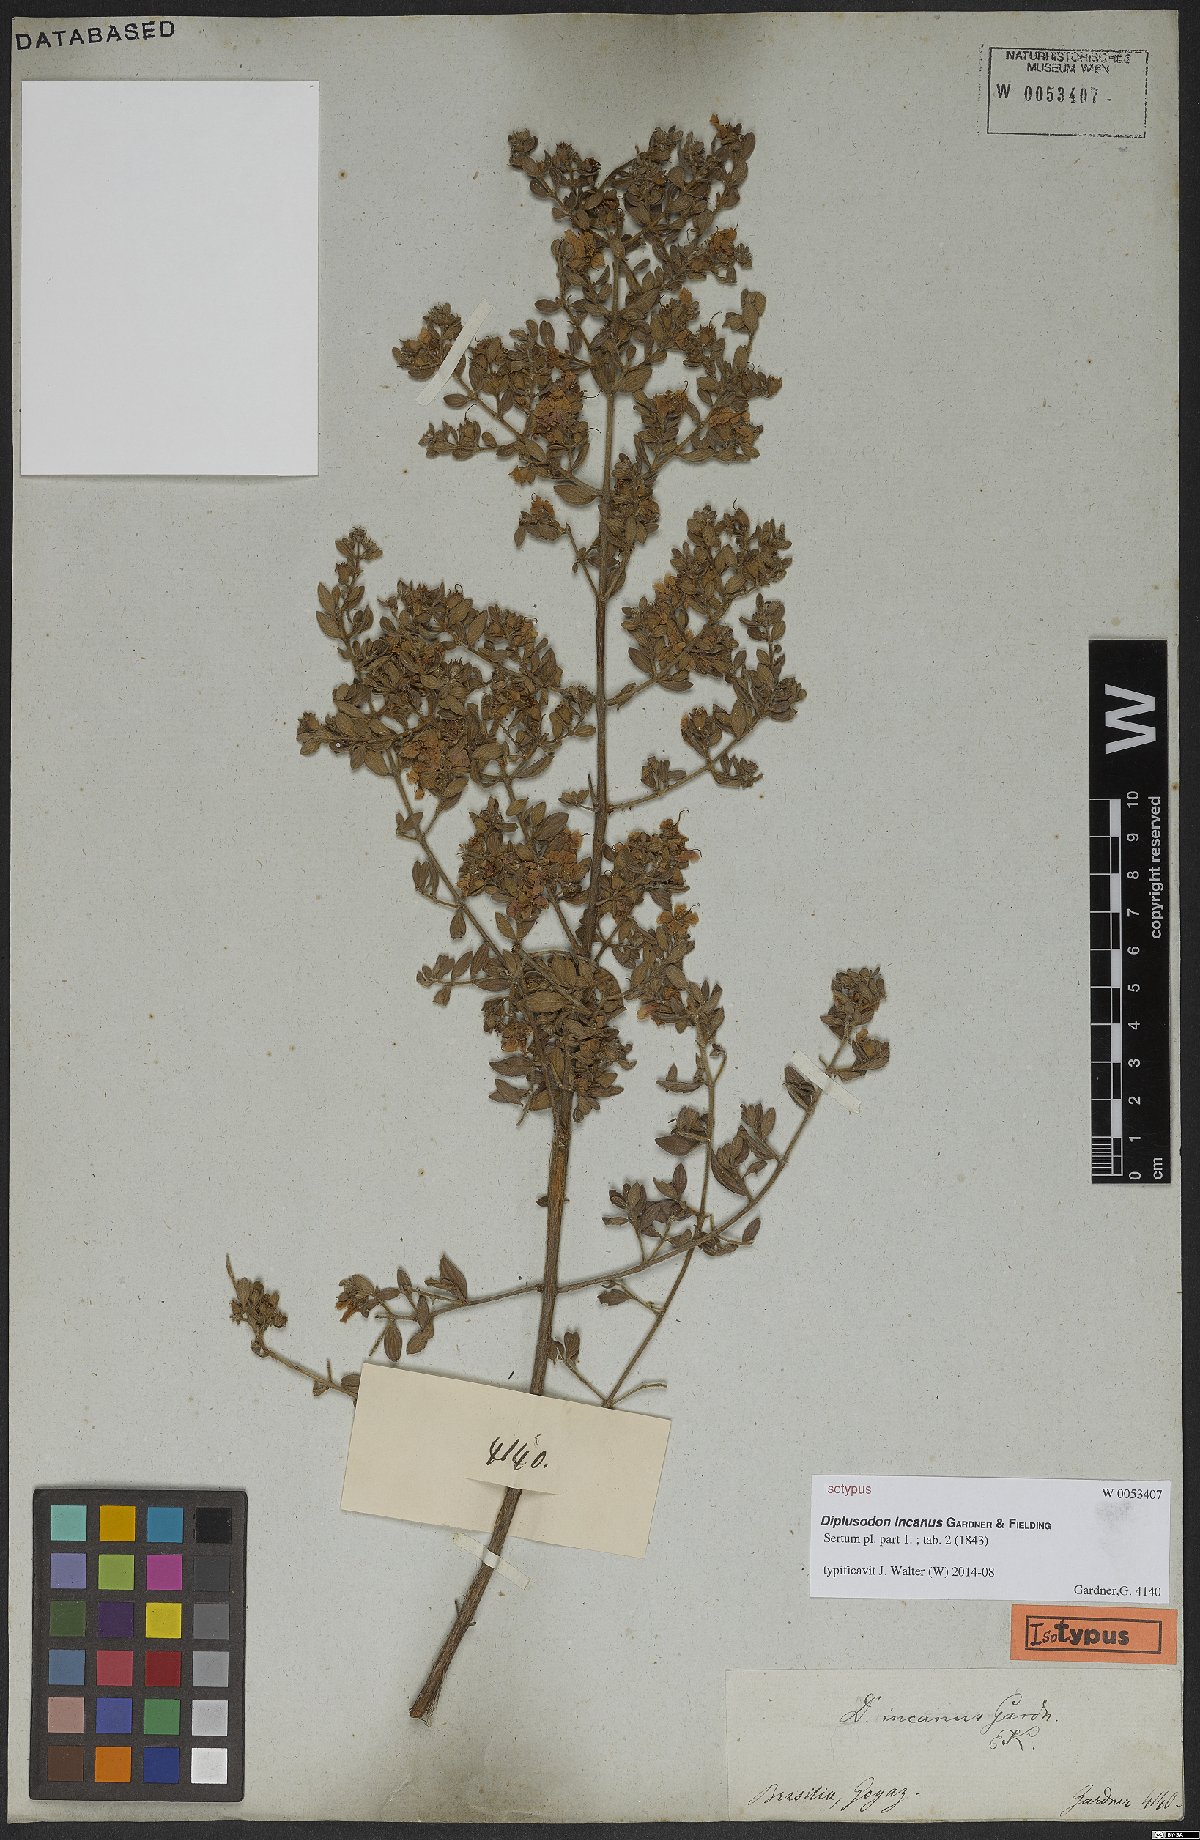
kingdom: Plantae
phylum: Tracheophyta
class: Magnoliopsida
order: Myrtales
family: Lythraceae
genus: Diplusodon
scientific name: Diplusodon incanus
